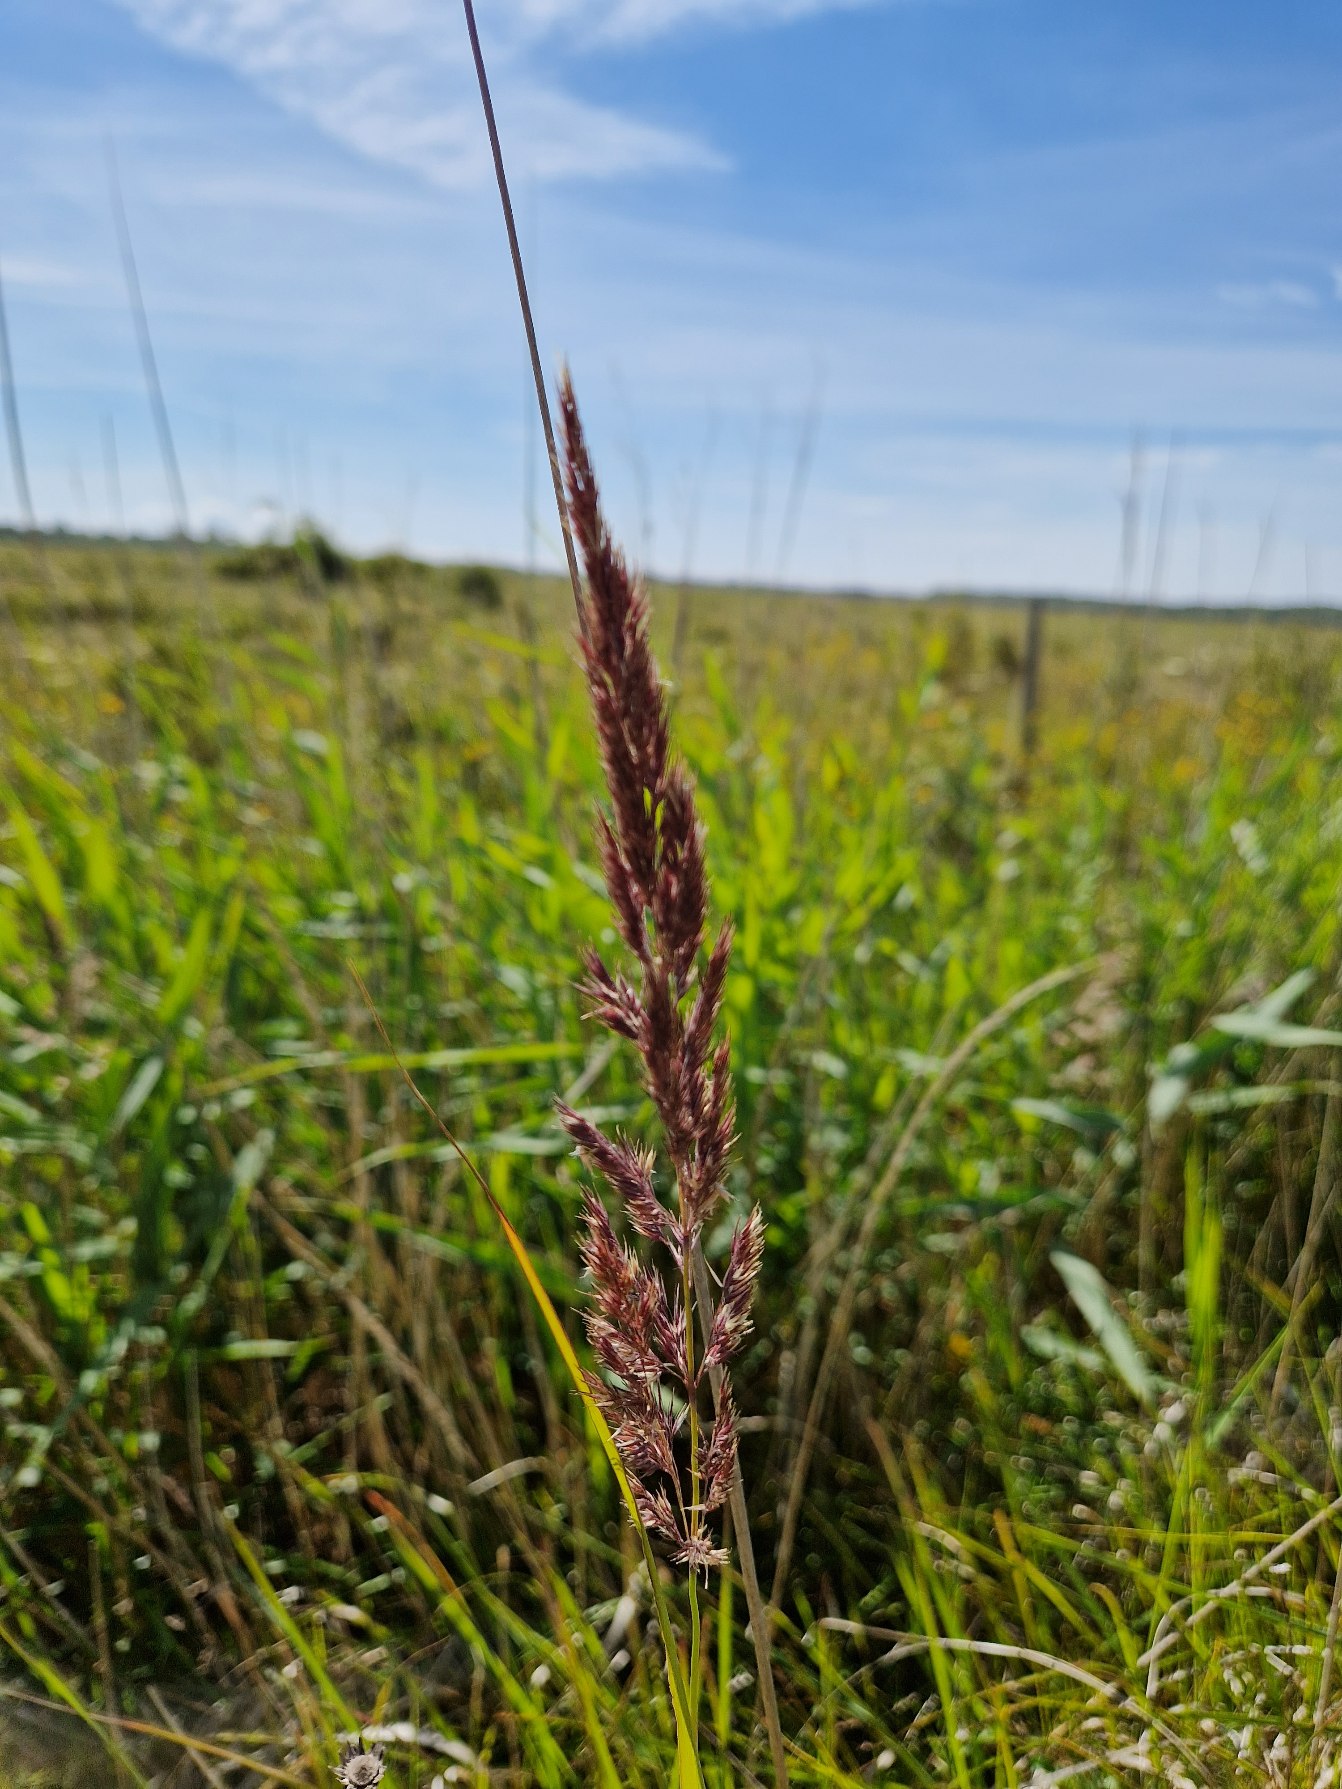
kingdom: Plantae
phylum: Tracheophyta
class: Liliopsida
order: Poales
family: Poaceae
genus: Calamagrostis
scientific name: Calamagrostis epigejos
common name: Bjerg-rørhvene
